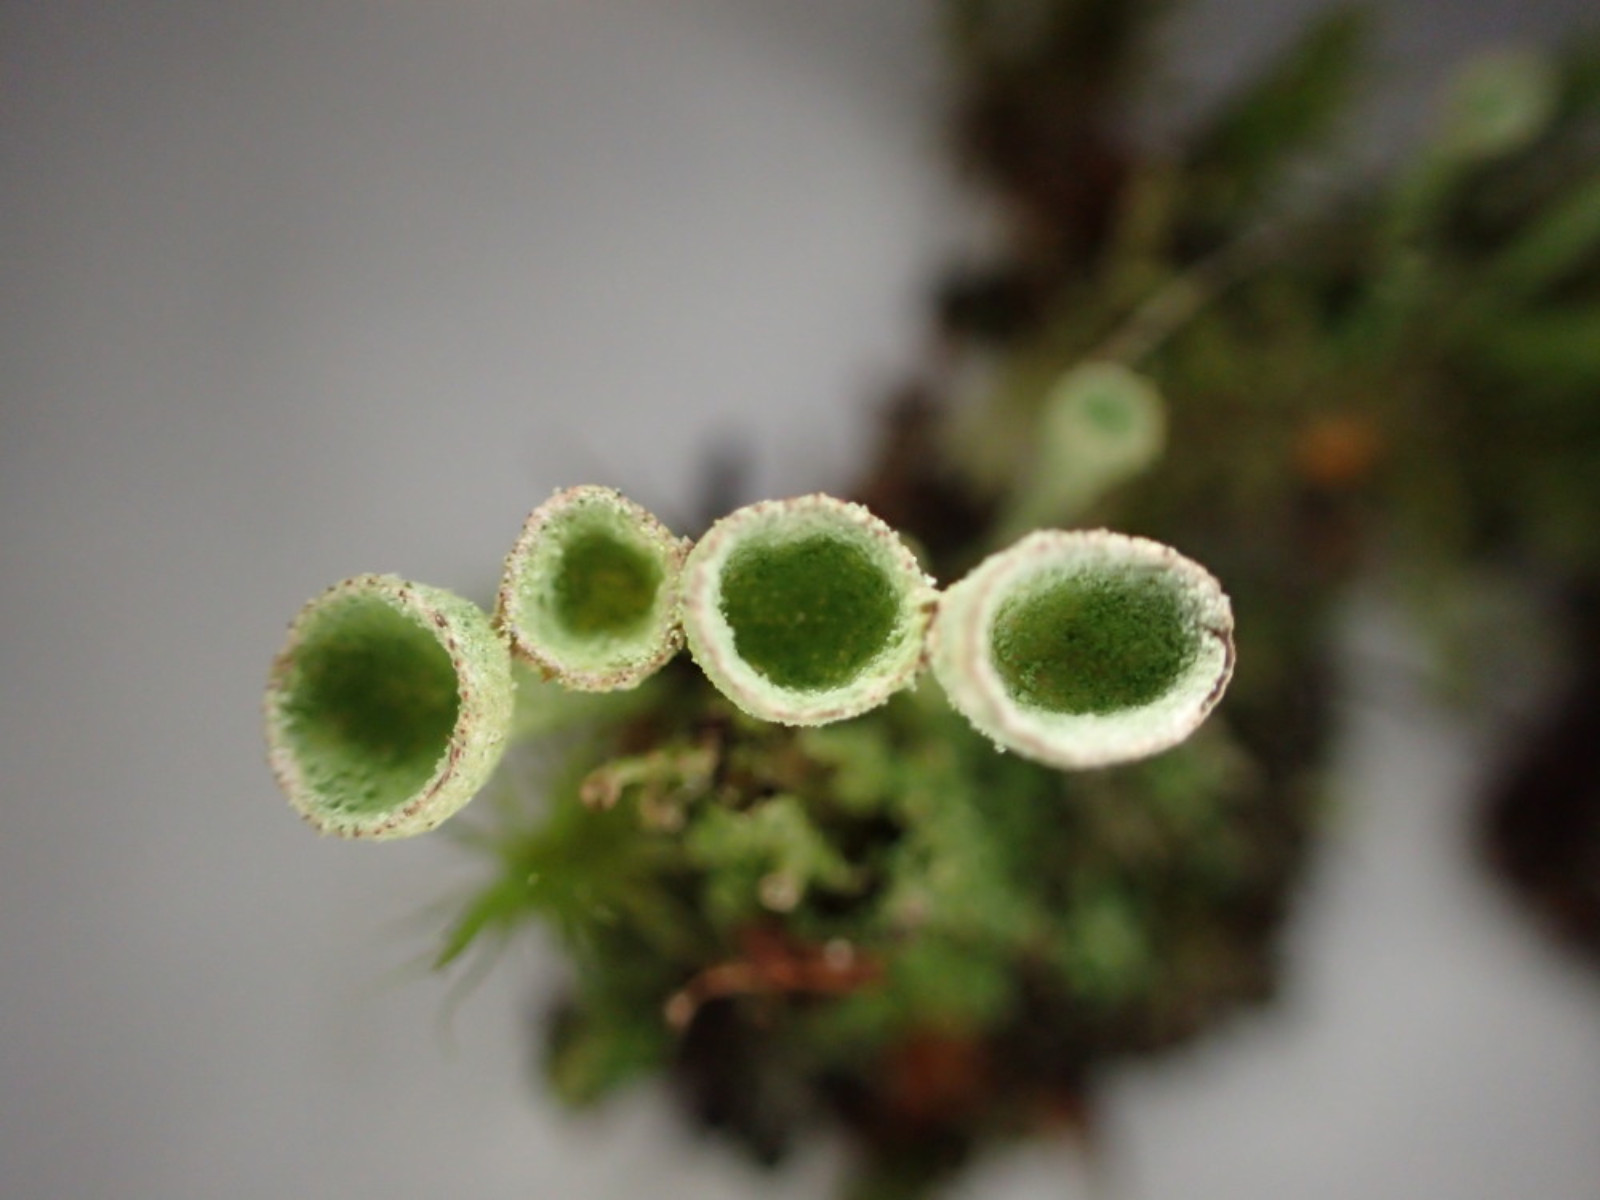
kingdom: Fungi
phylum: Ascomycota
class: Lecanoromycetes
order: Lecanorales
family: Cladoniaceae
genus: Cladonia
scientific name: Cladonia
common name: brungrøn bægerlav
